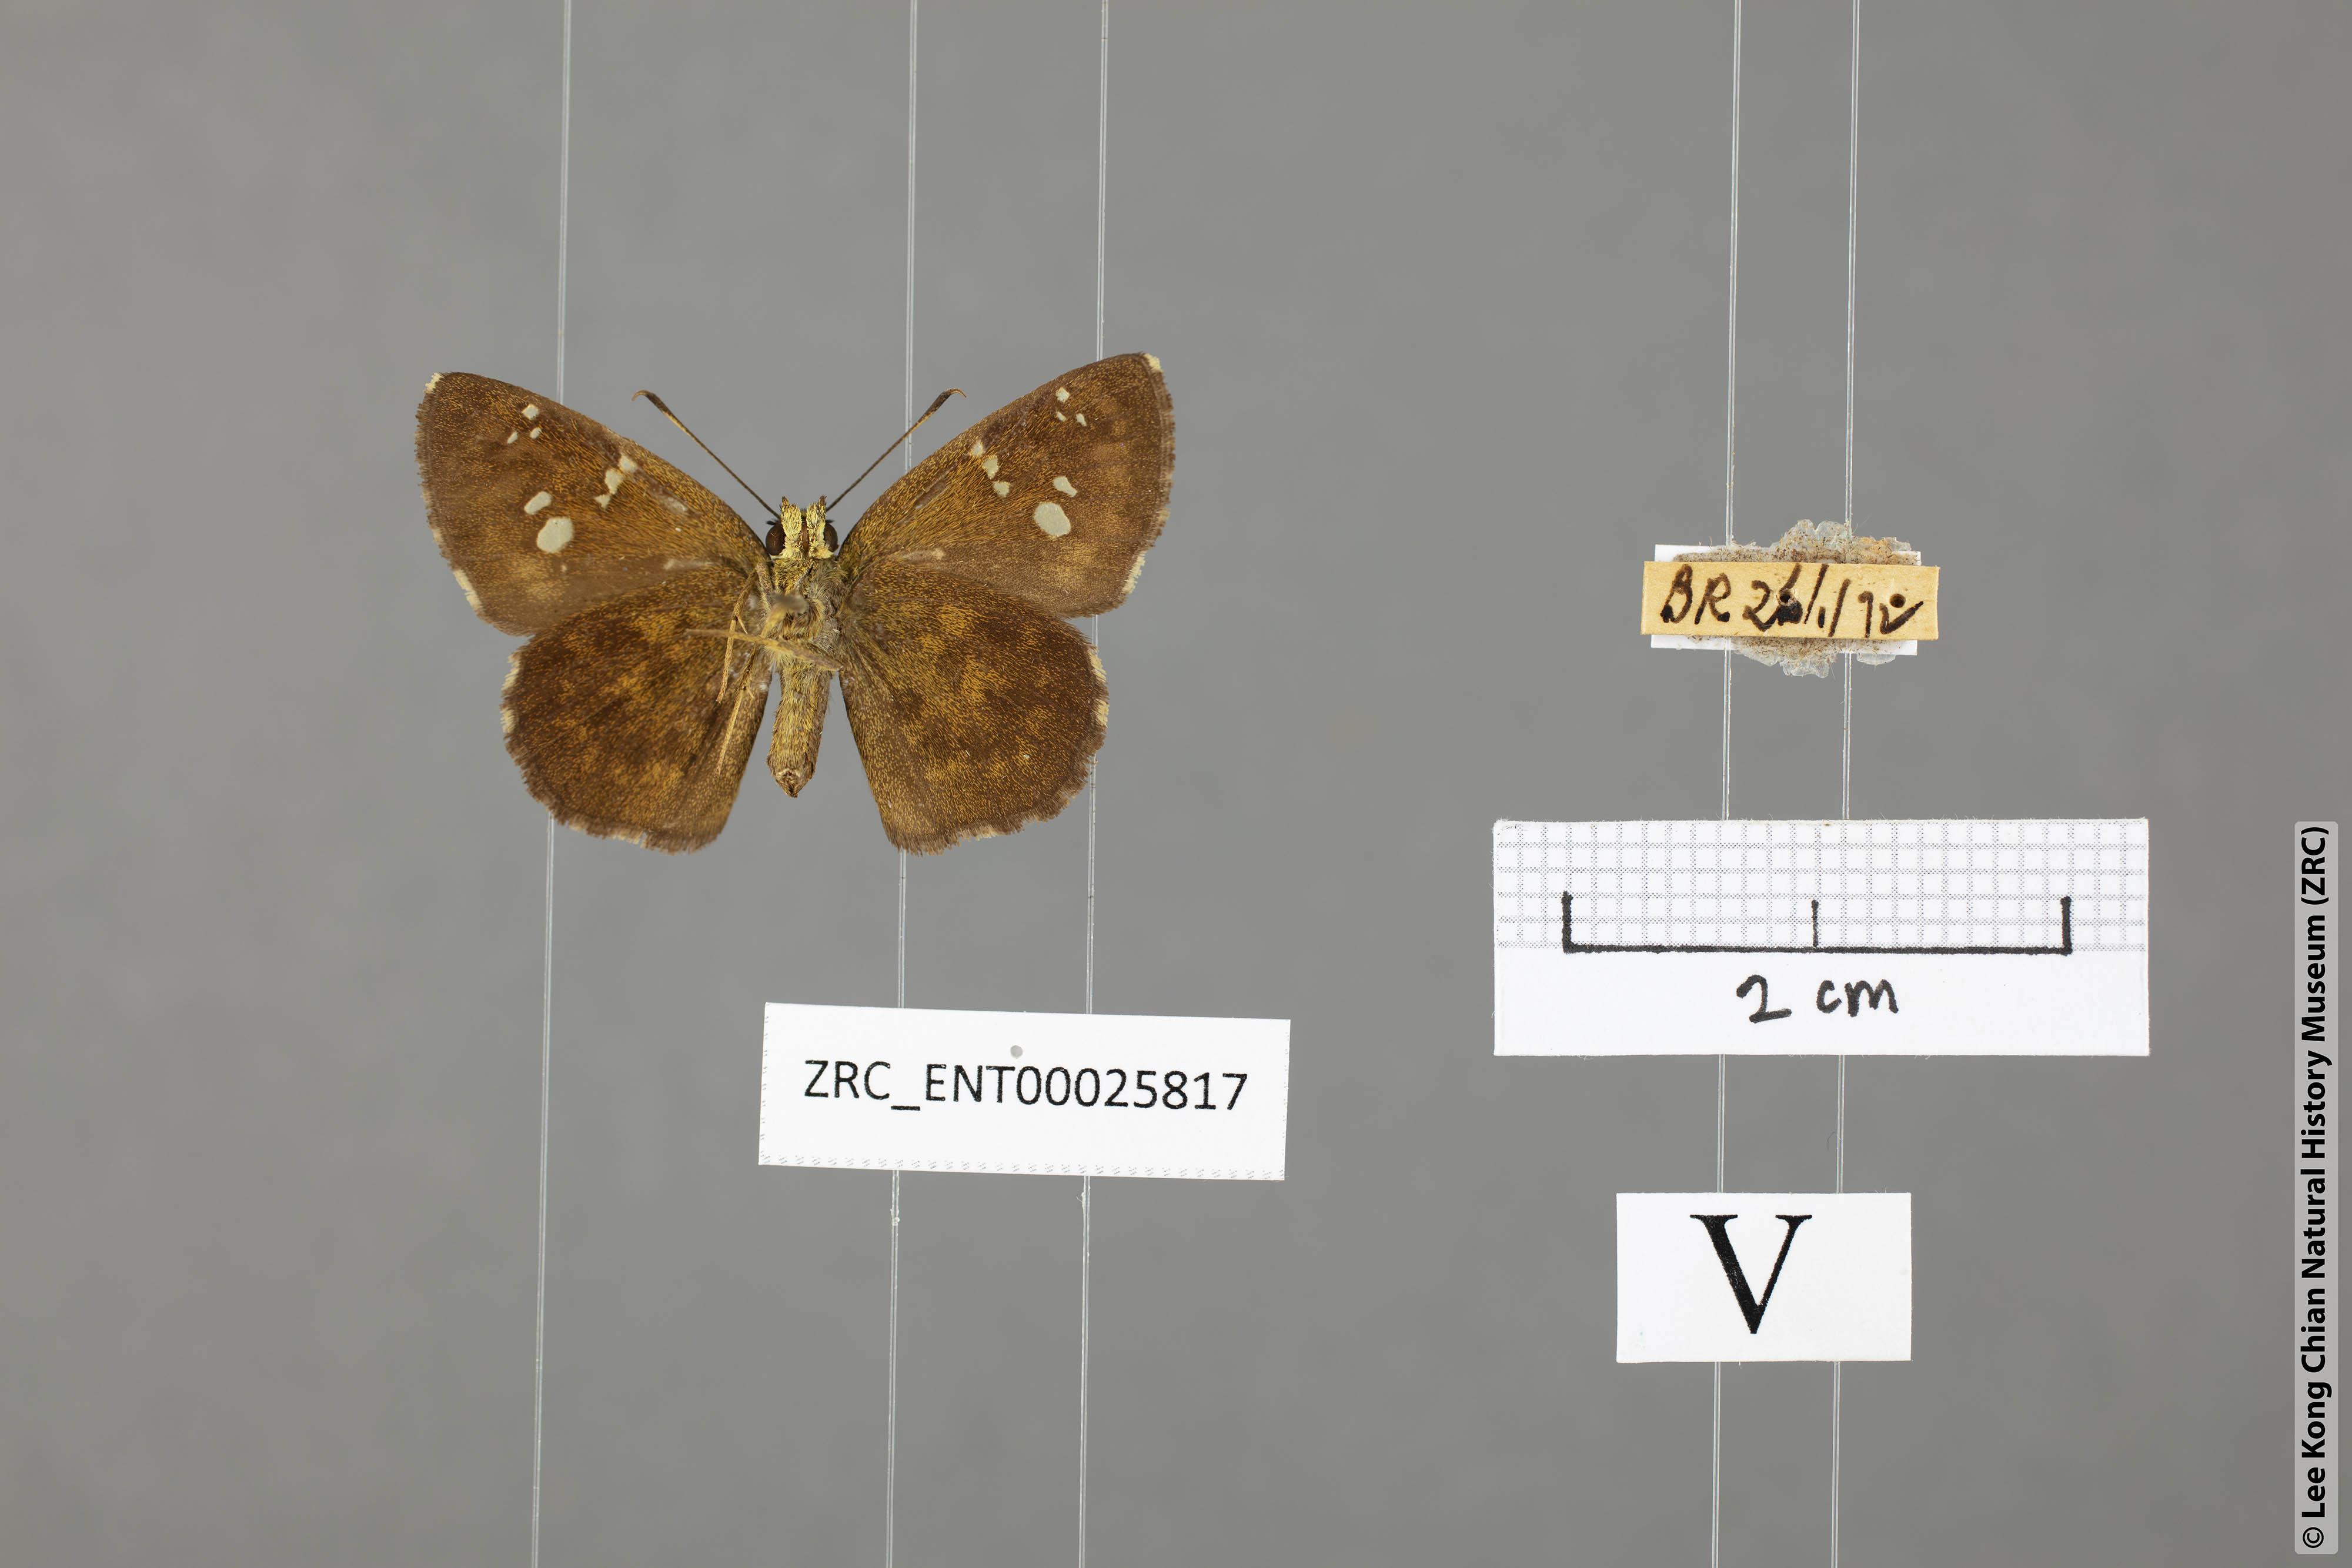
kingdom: Animalia
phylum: Arthropoda
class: Insecta
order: Lepidoptera
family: Hesperiidae
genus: Pseudocoladenia
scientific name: Pseudocoladenia dan
